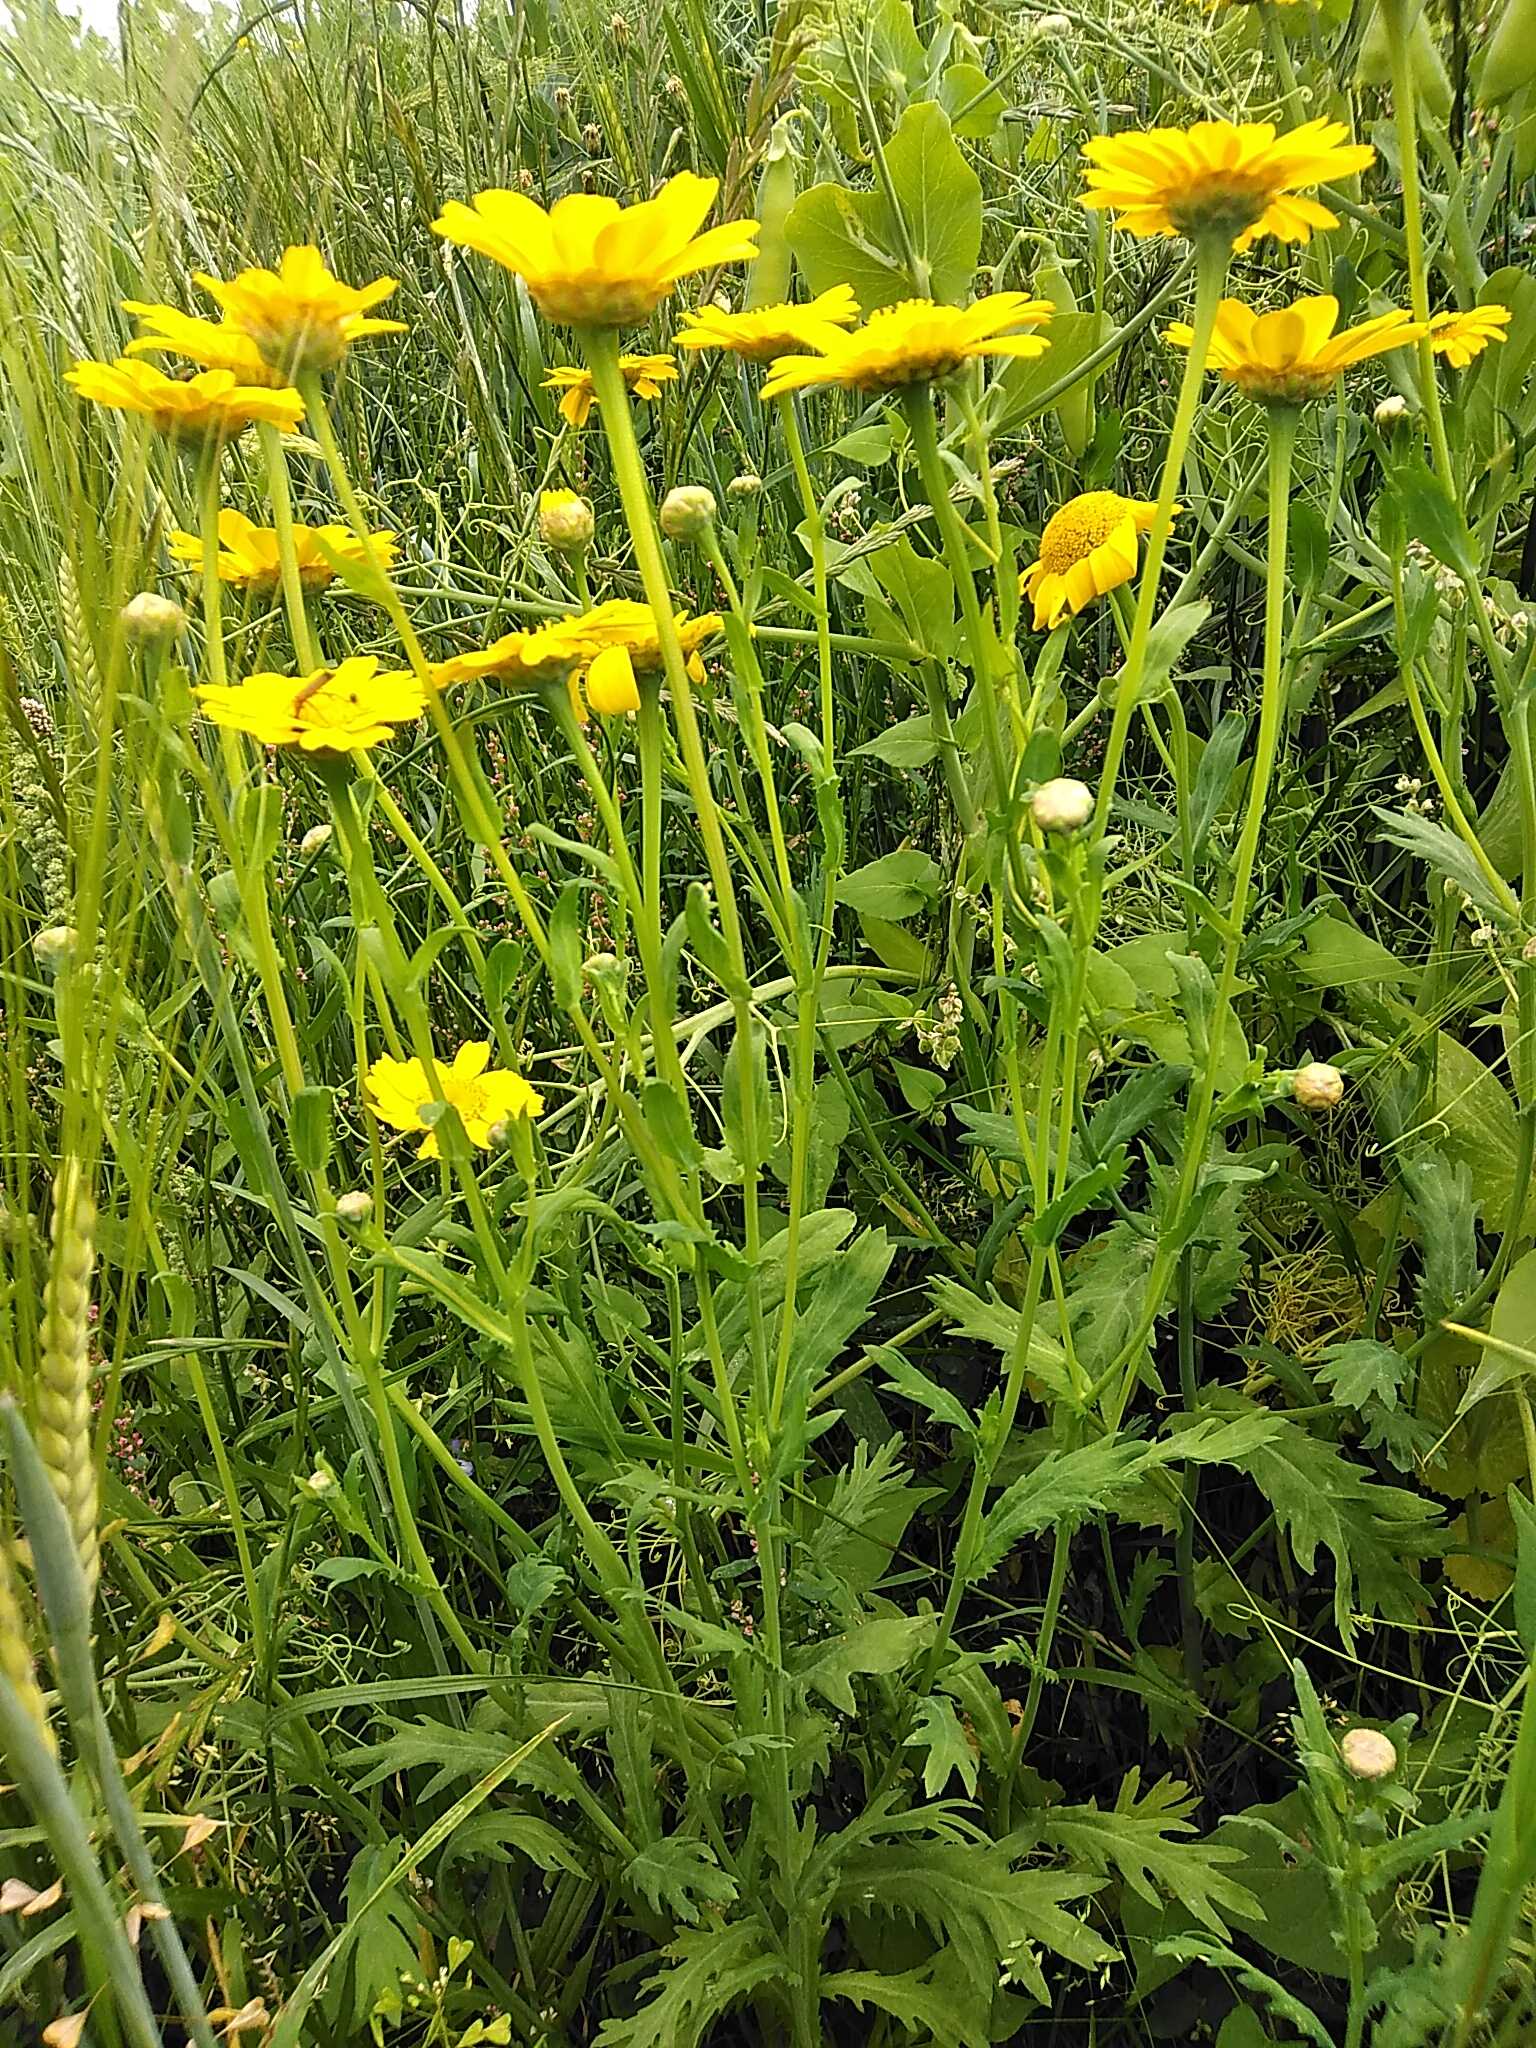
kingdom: Plantae
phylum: Tracheophyta
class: Magnoliopsida
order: Asterales
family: Asteraceae
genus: Glebionis
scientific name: Glebionis segetum
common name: Gul okseøje
